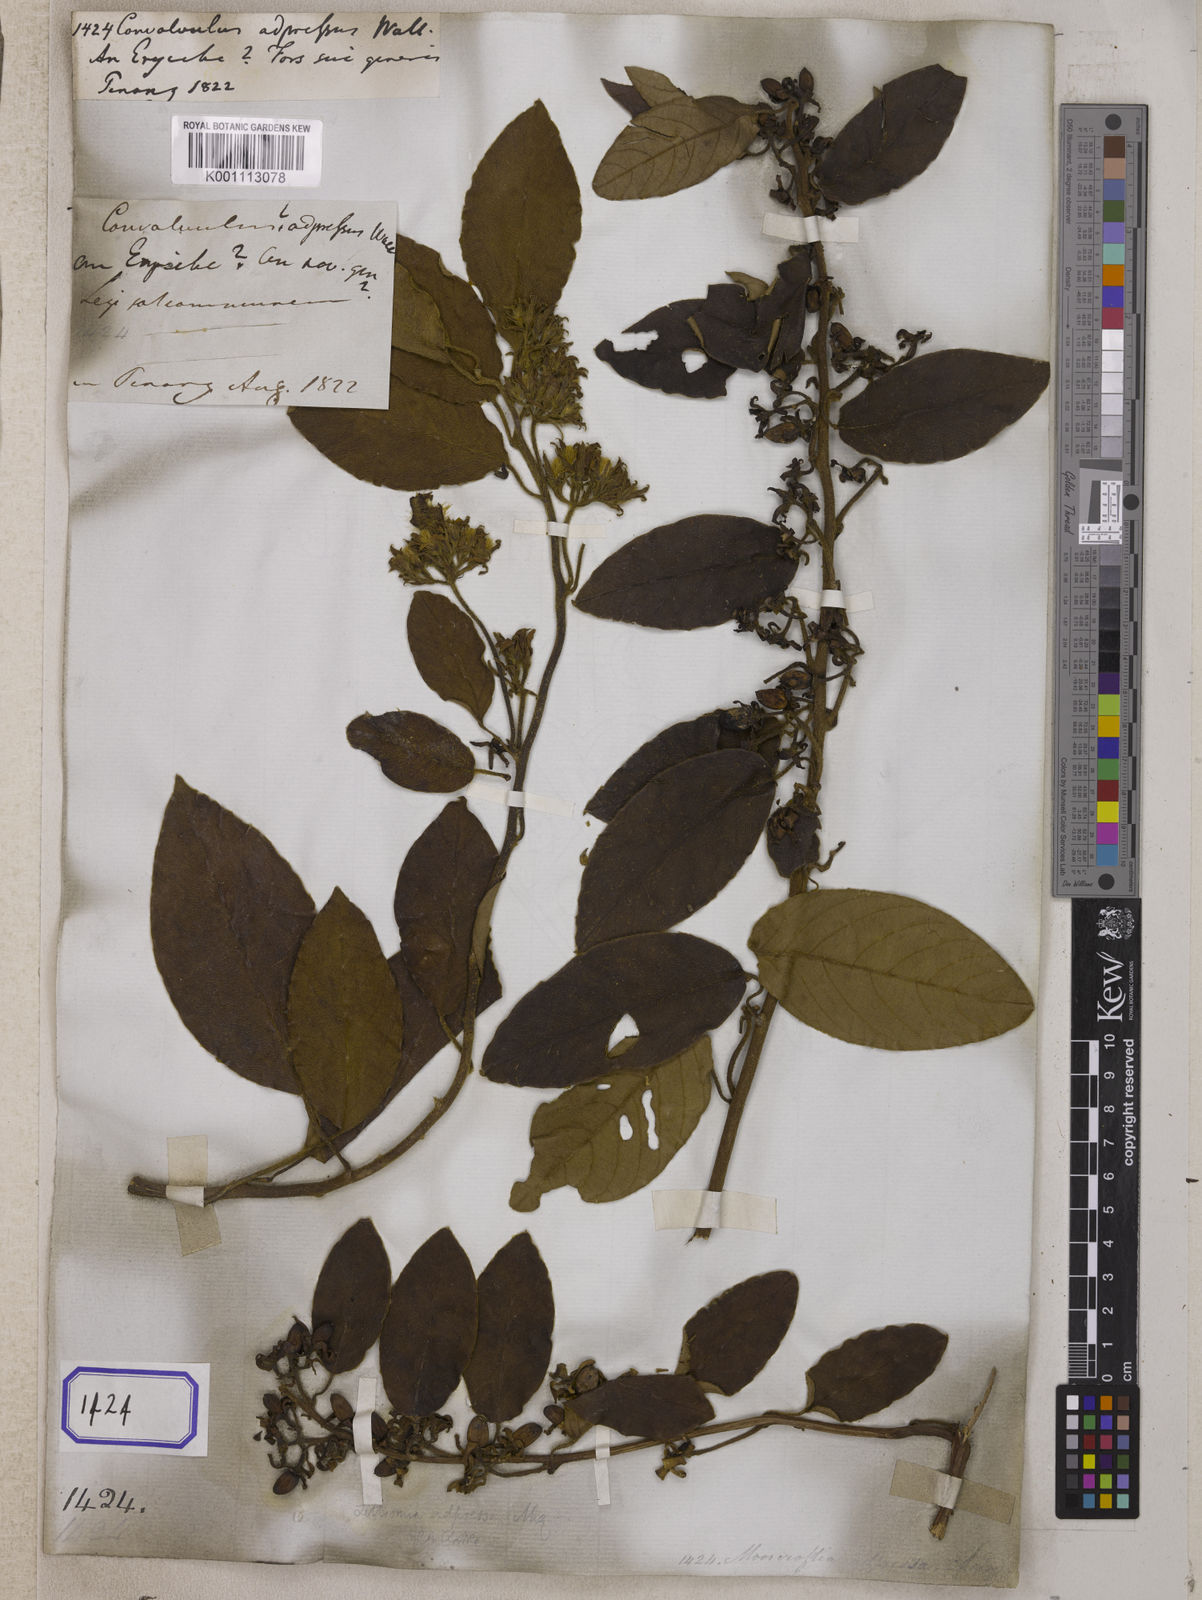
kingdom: Plantae
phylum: Tracheophyta
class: Magnoliopsida
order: Solanales
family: Convolvulaceae
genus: Convolvulus
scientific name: Convolvulus
